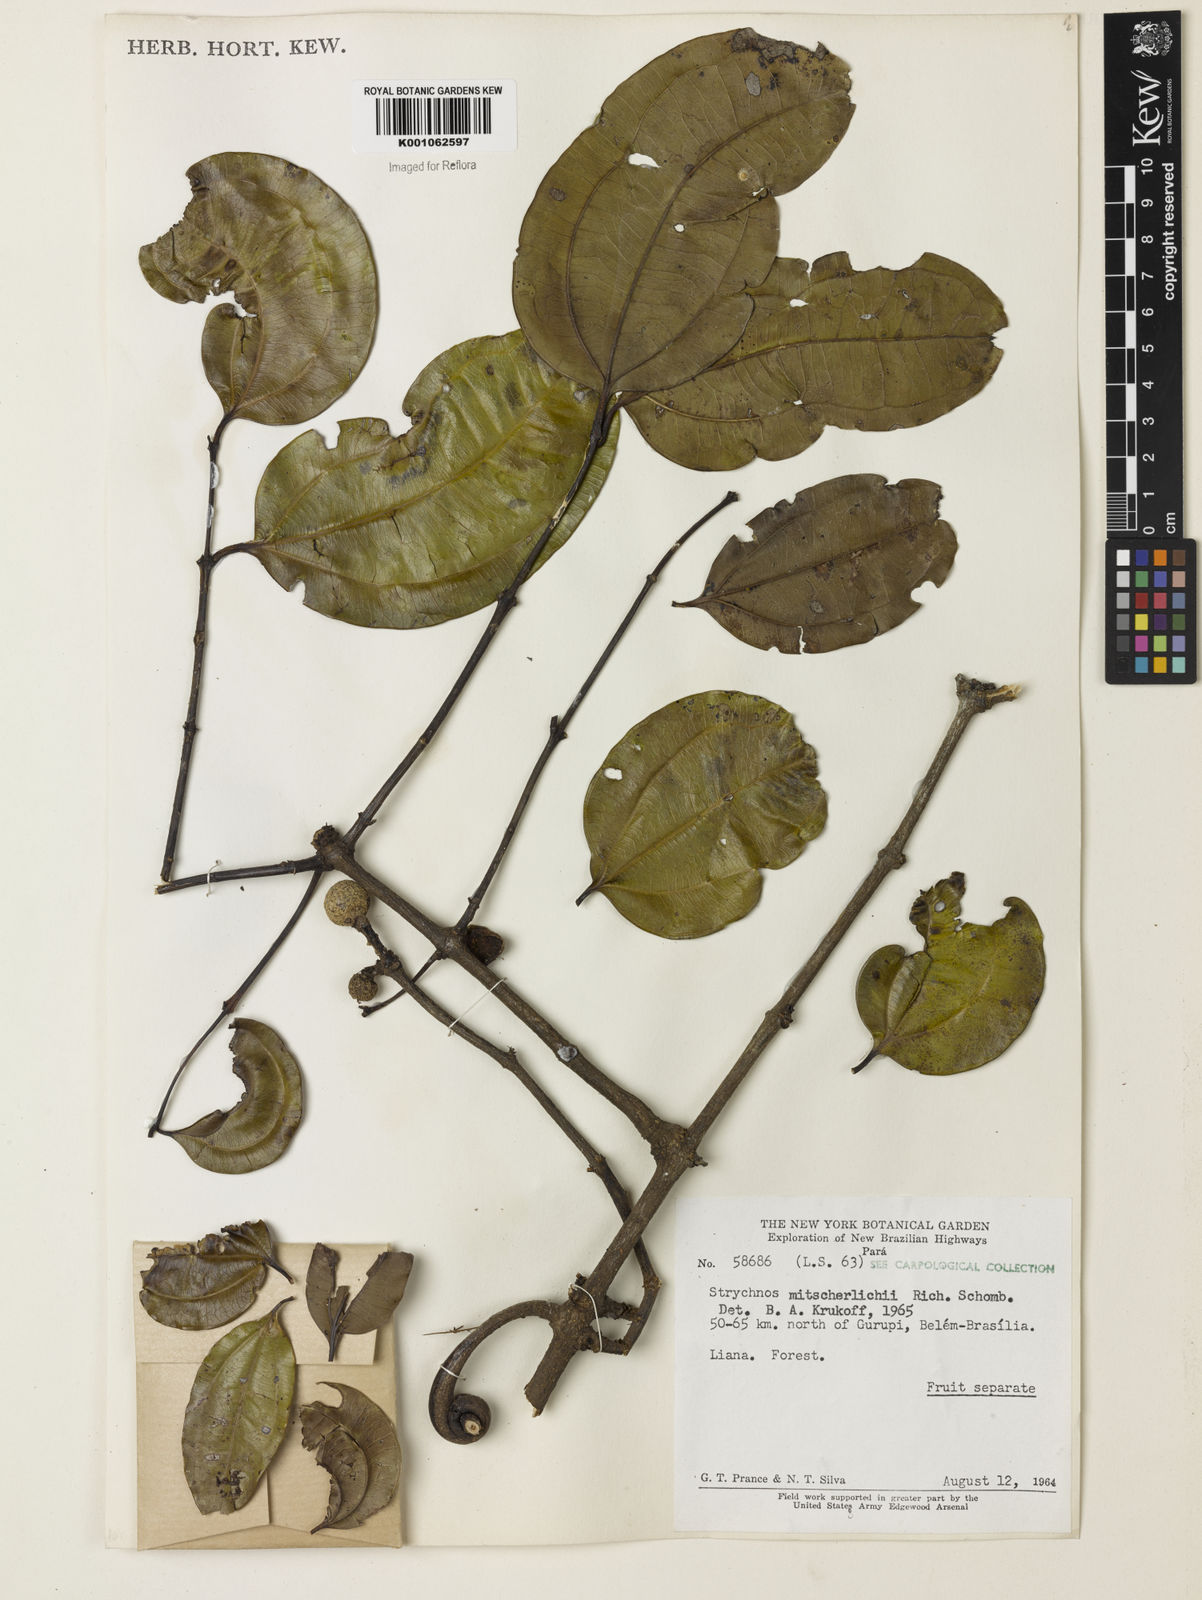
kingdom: Plantae
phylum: Tracheophyta
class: Magnoliopsida
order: Gentianales
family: Loganiaceae
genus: Strychnos
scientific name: Strychnos mitscherlichii
